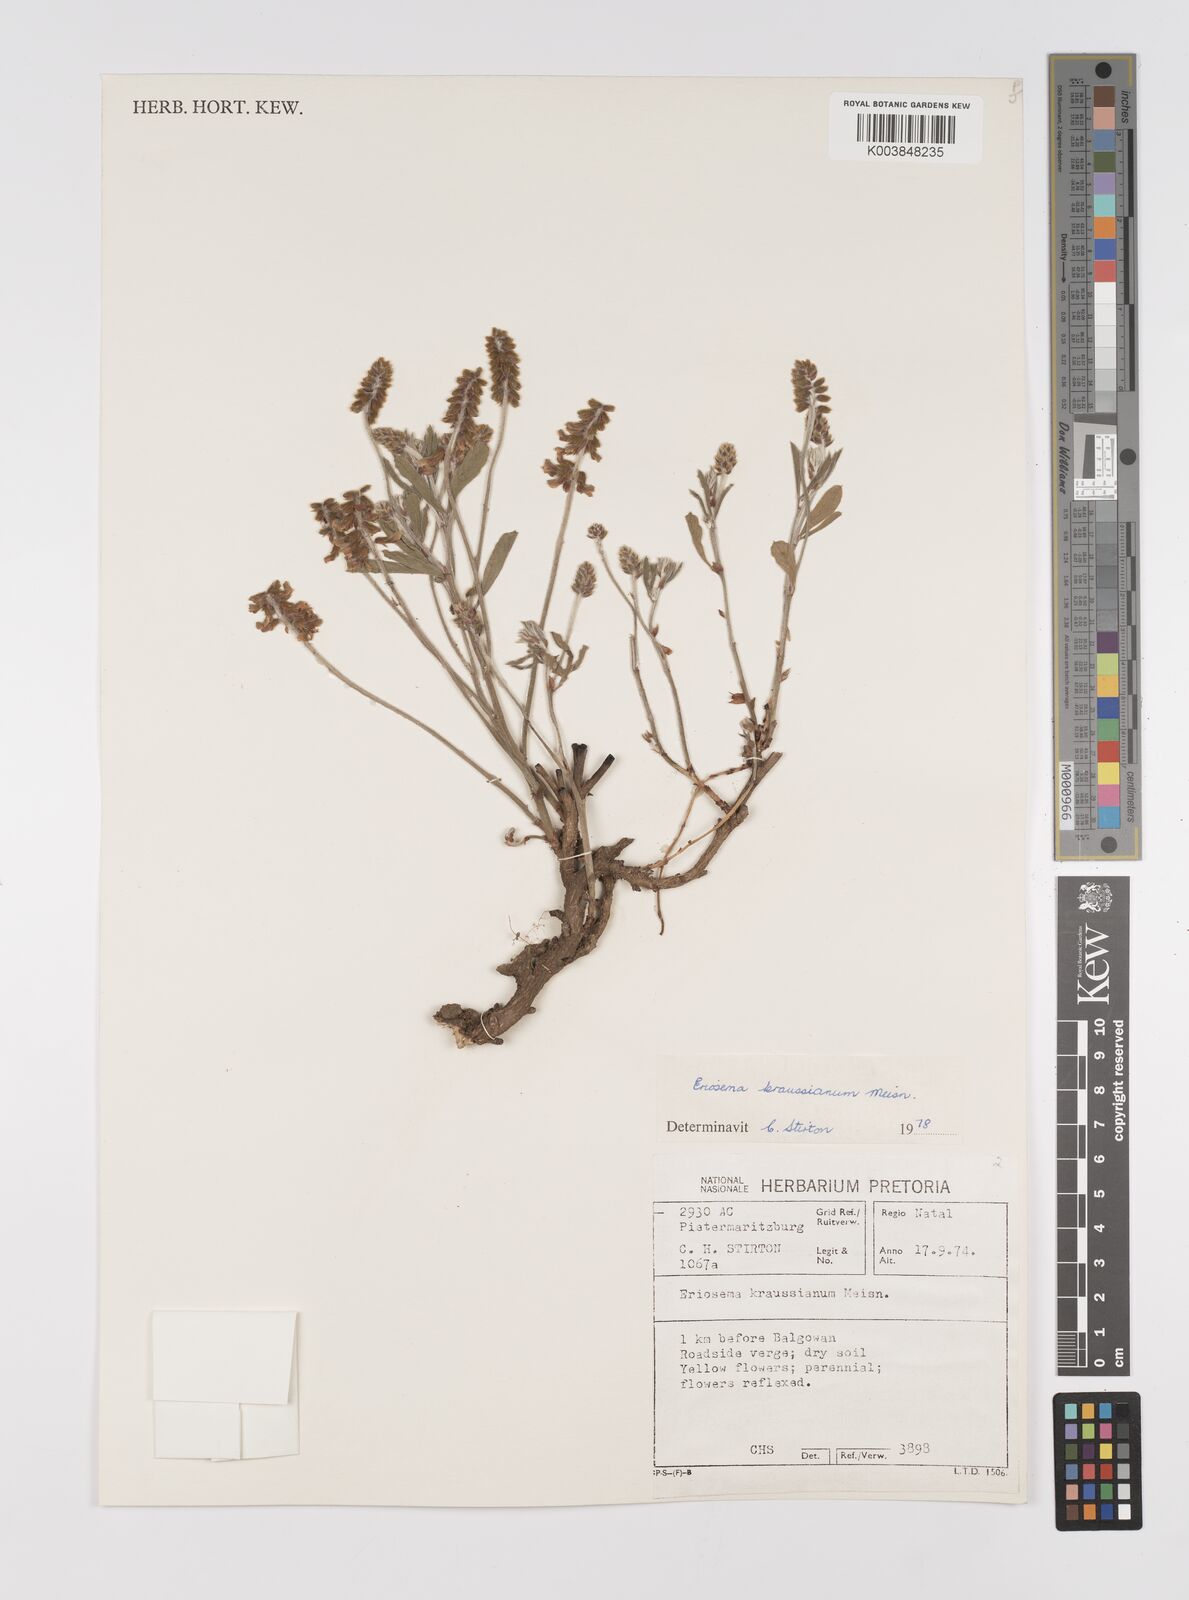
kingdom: Plantae
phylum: Tracheophyta
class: Magnoliopsida
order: Fabales
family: Fabaceae
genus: Eriosema
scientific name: Eriosema kraussianum
